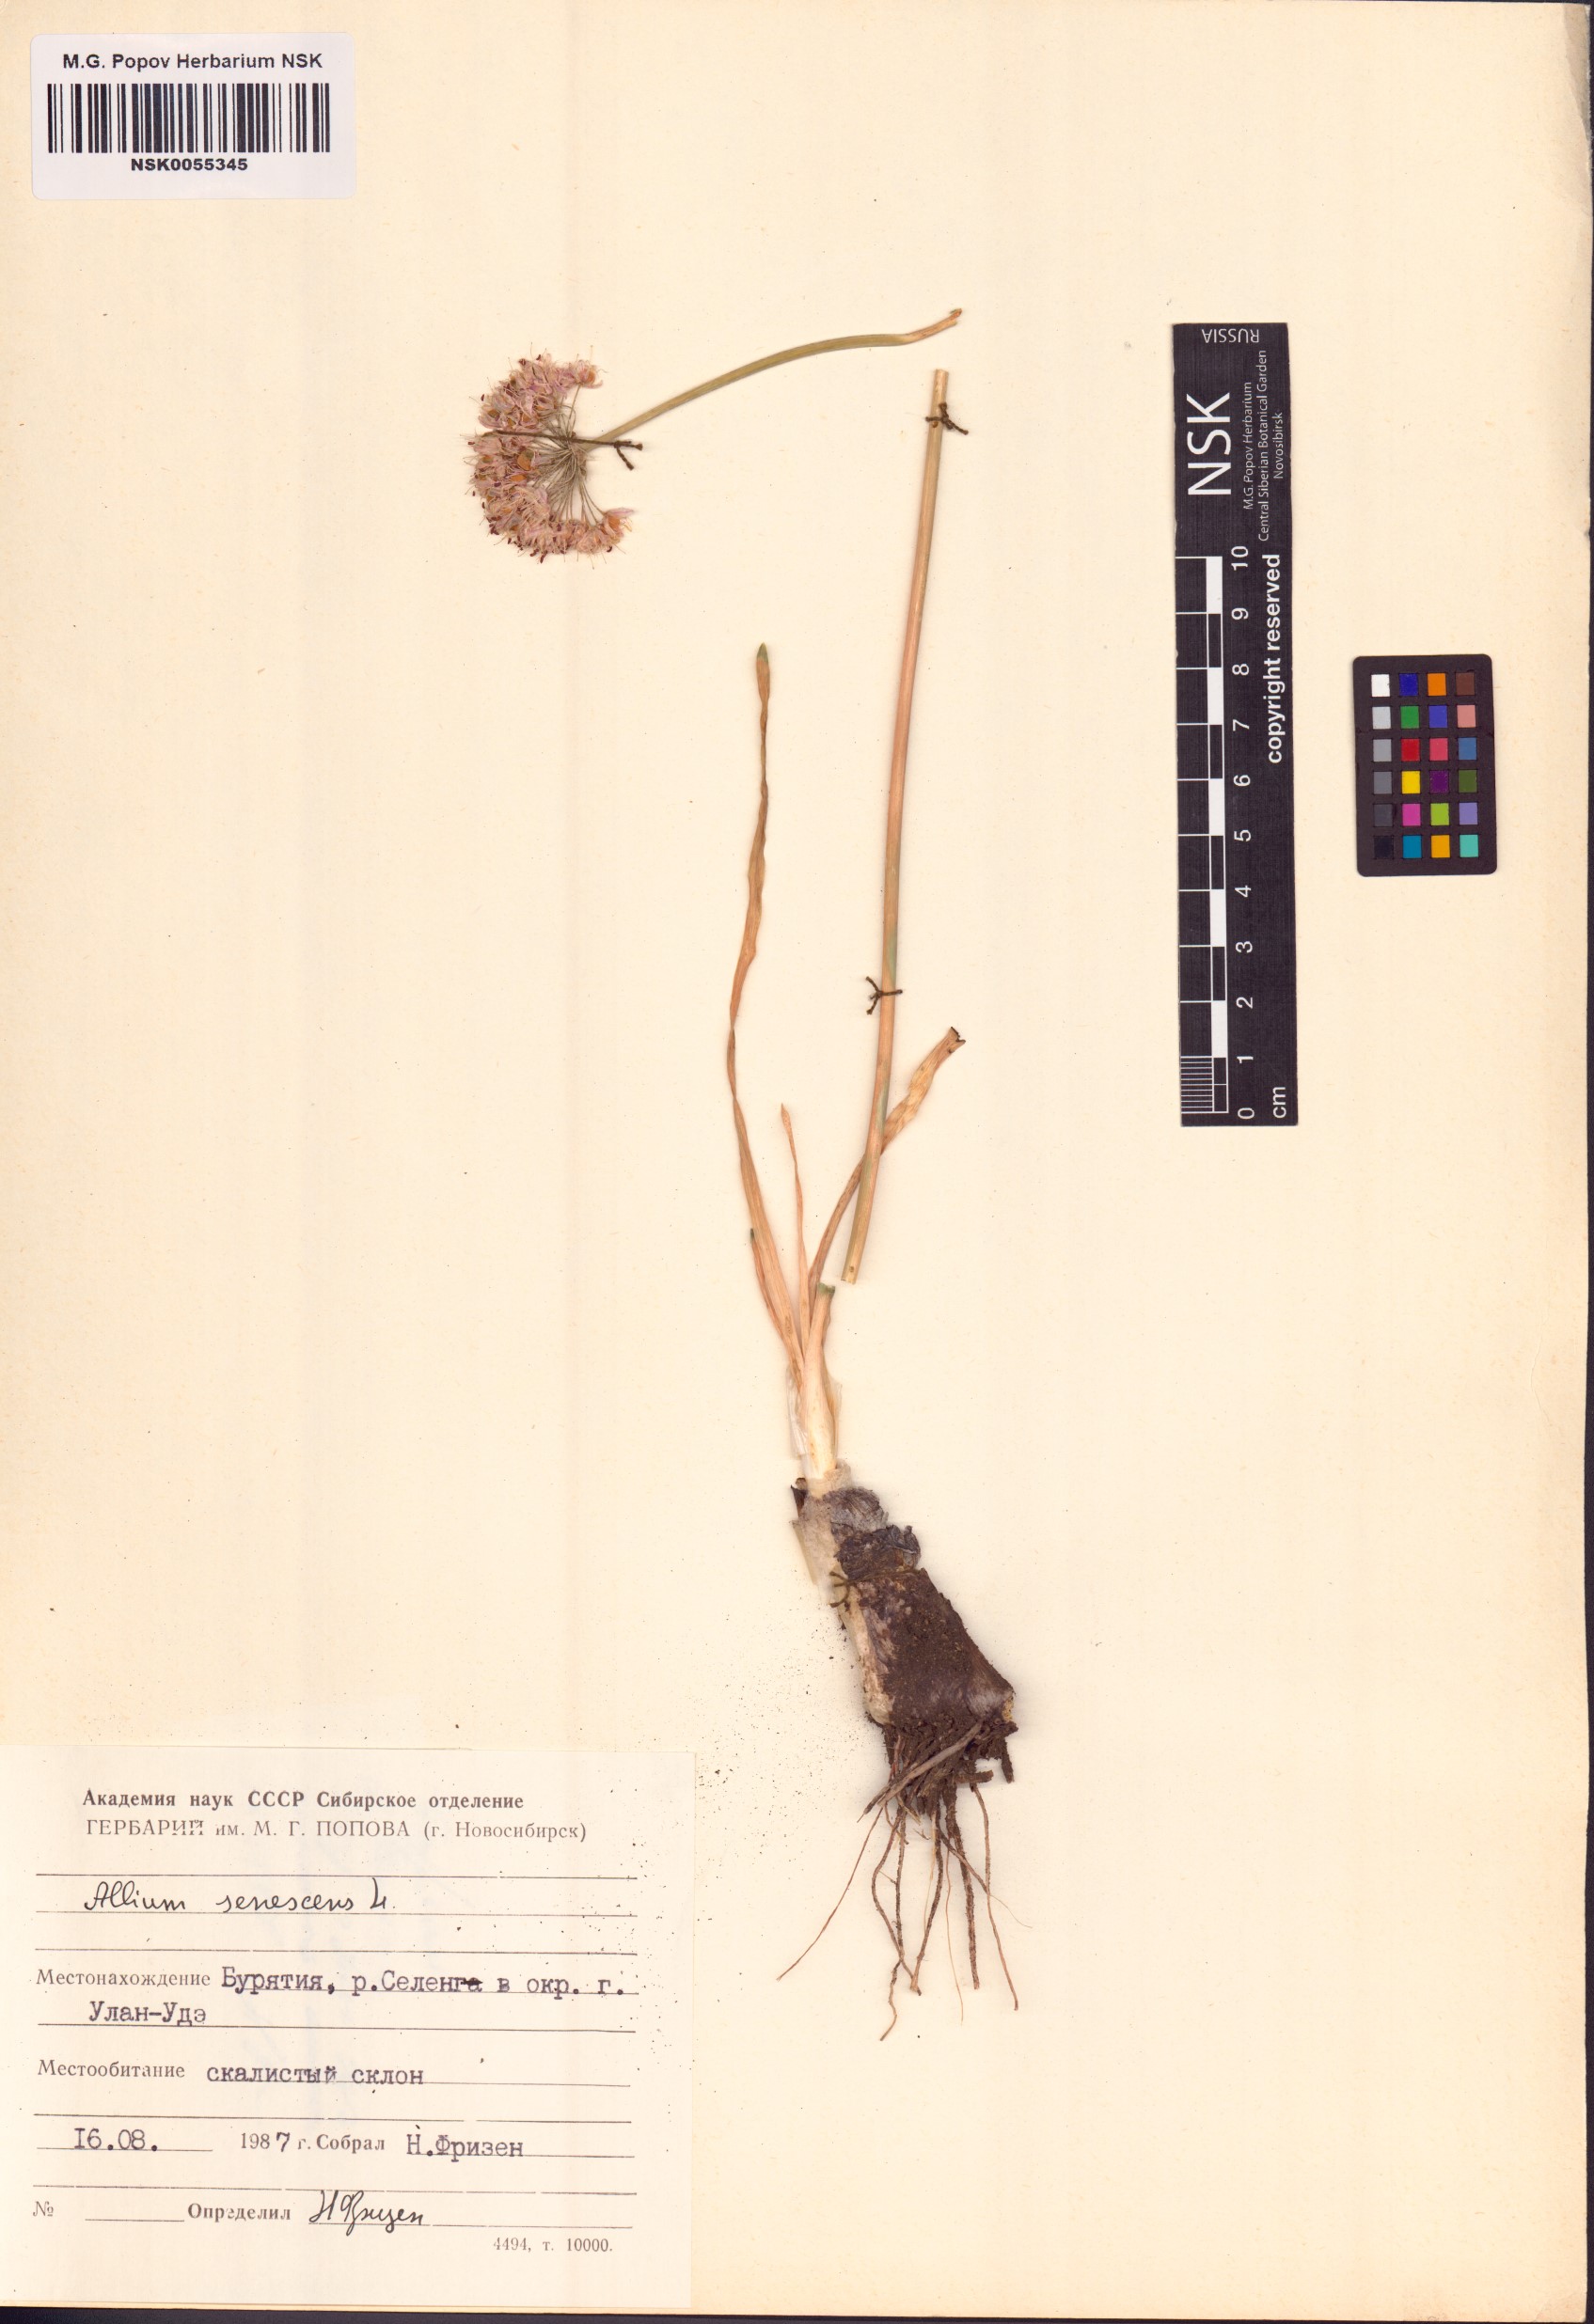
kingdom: Plantae
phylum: Tracheophyta
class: Liliopsida
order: Asparagales
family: Amaryllidaceae
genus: Allium
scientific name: Allium senescens
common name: German garlic
